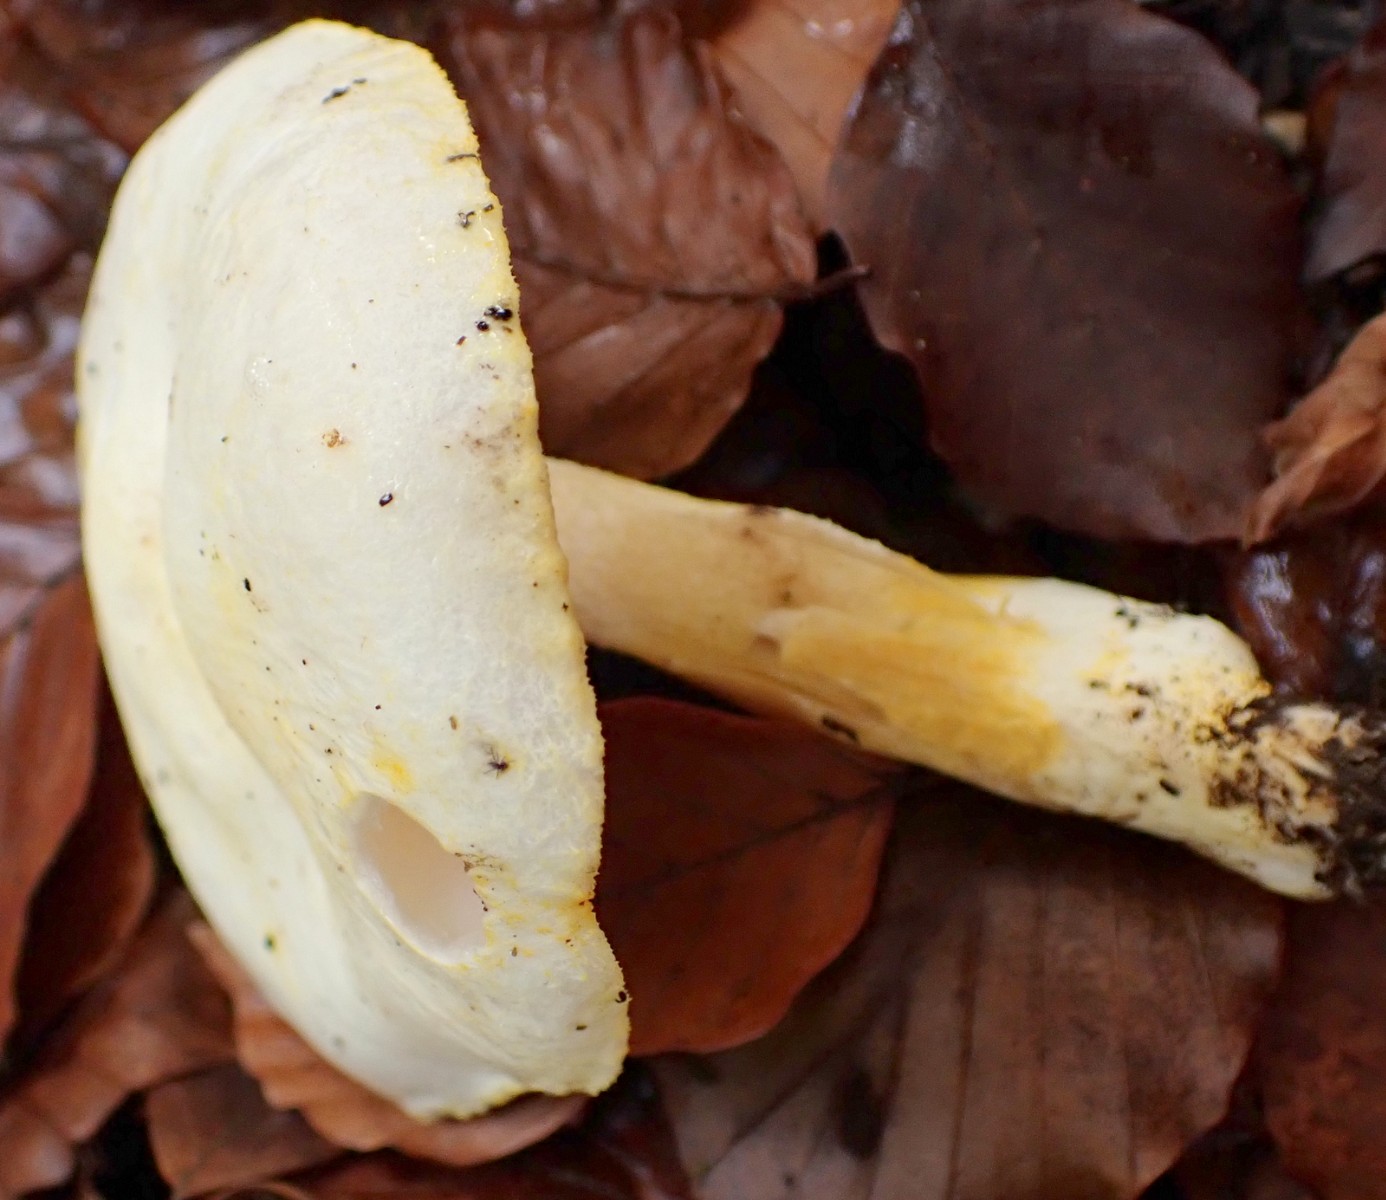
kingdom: Fungi
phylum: Basidiomycota
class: Agaricomycetes
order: Agaricales
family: Hygrophoraceae
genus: Hygrophorus
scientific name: Hygrophorus chrysodon
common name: gulfnugget sneglehat
